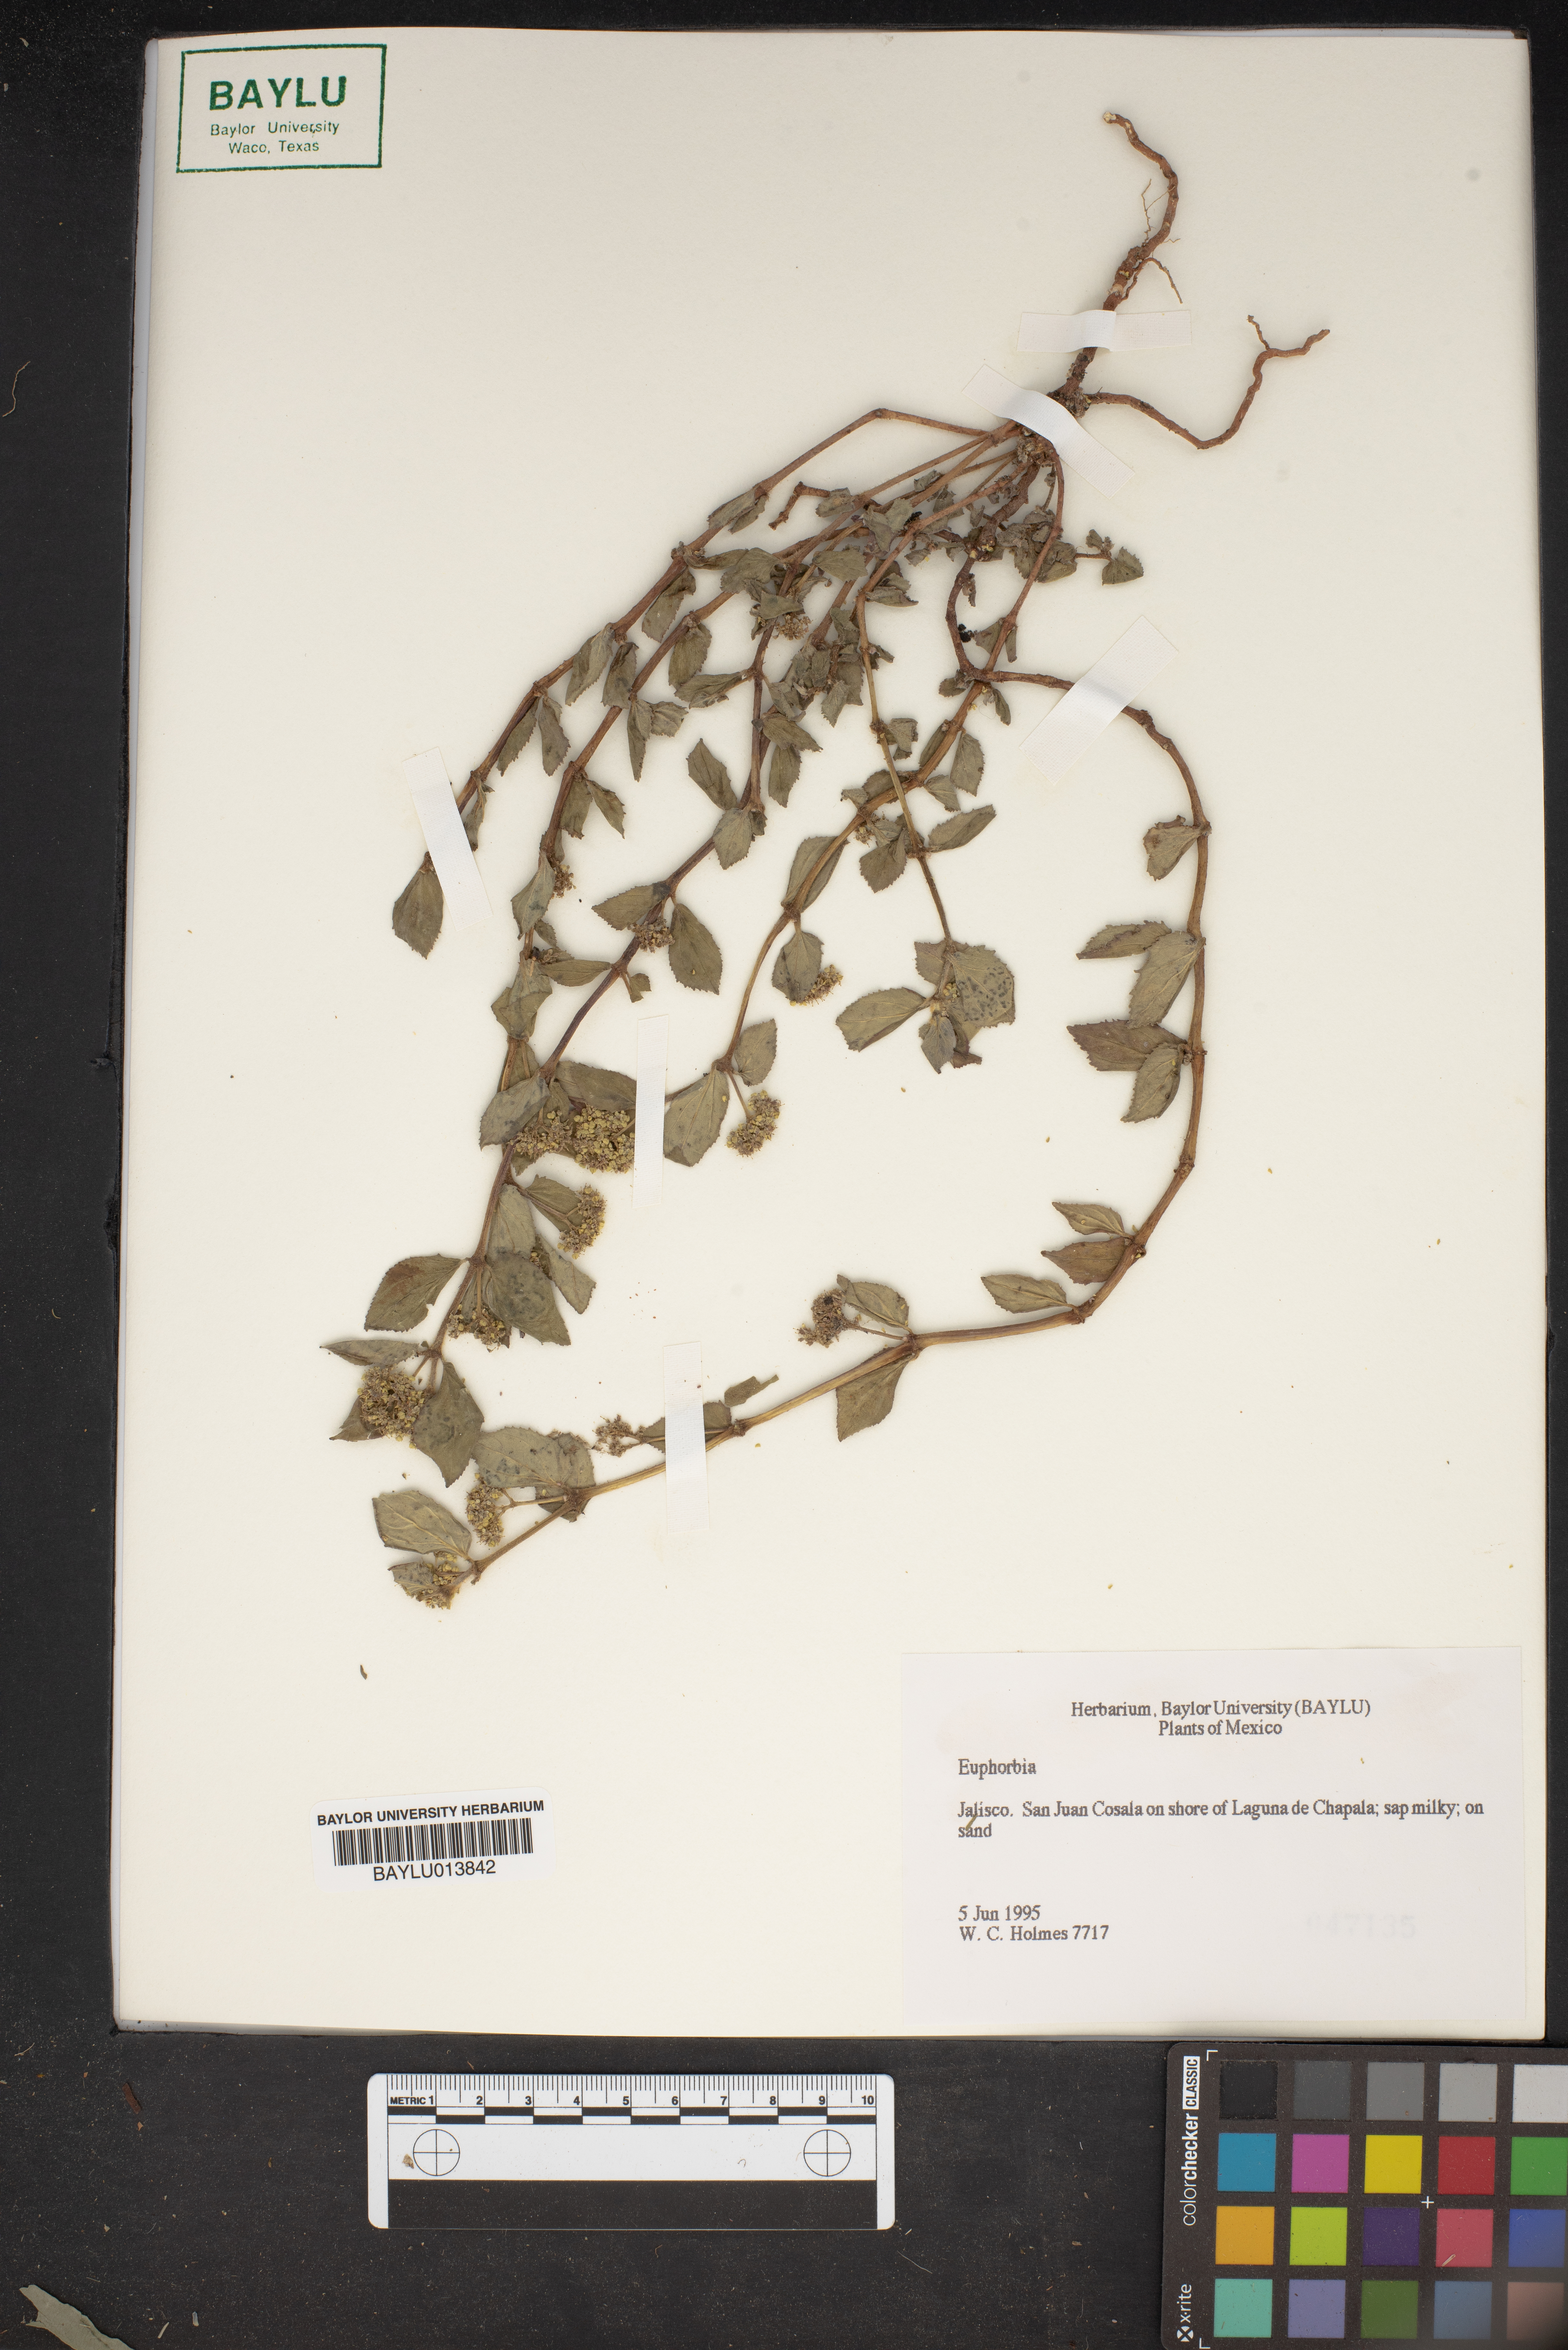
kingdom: Plantae
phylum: Tracheophyta
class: Magnoliopsida
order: Malpighiales
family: Euphorbiaceae
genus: Euphorbia
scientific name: Euphorbia
